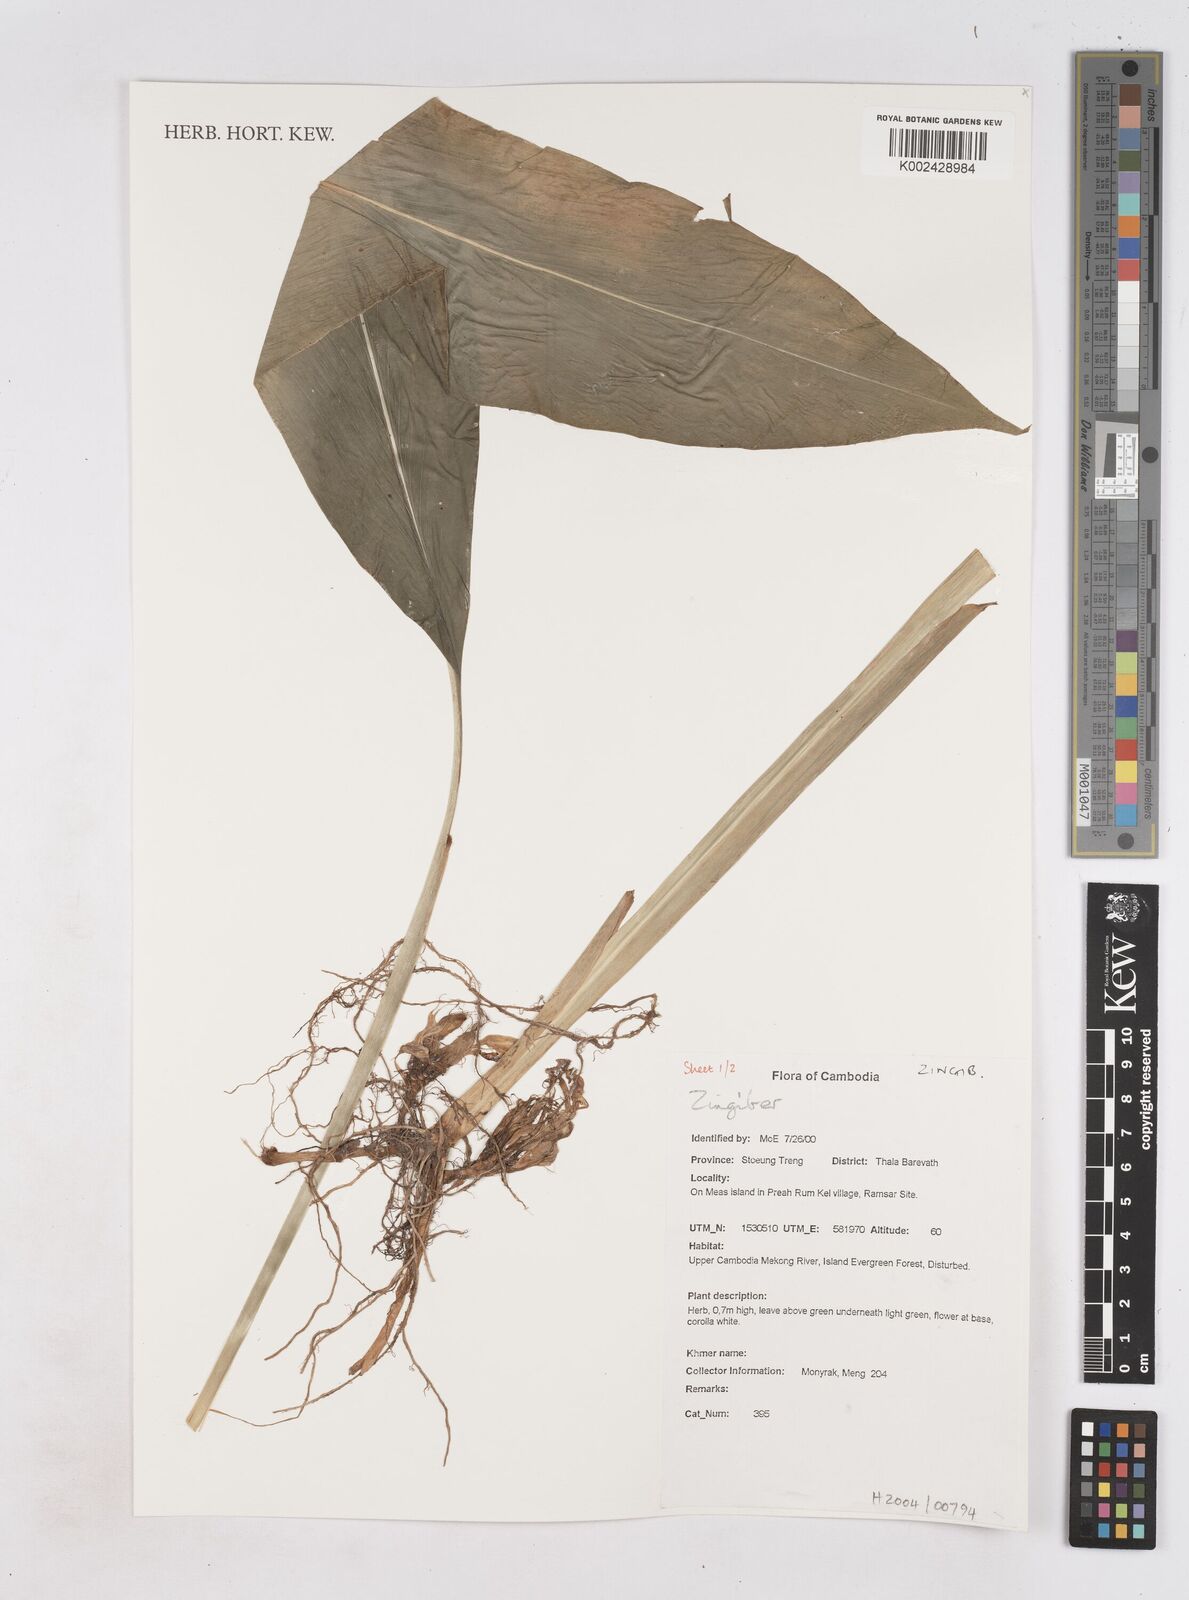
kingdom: Plantae
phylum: Tracheophyta
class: Liliopsida
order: Zingiberales
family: Zingiberaceae
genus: Zingiber
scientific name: Zingiber
